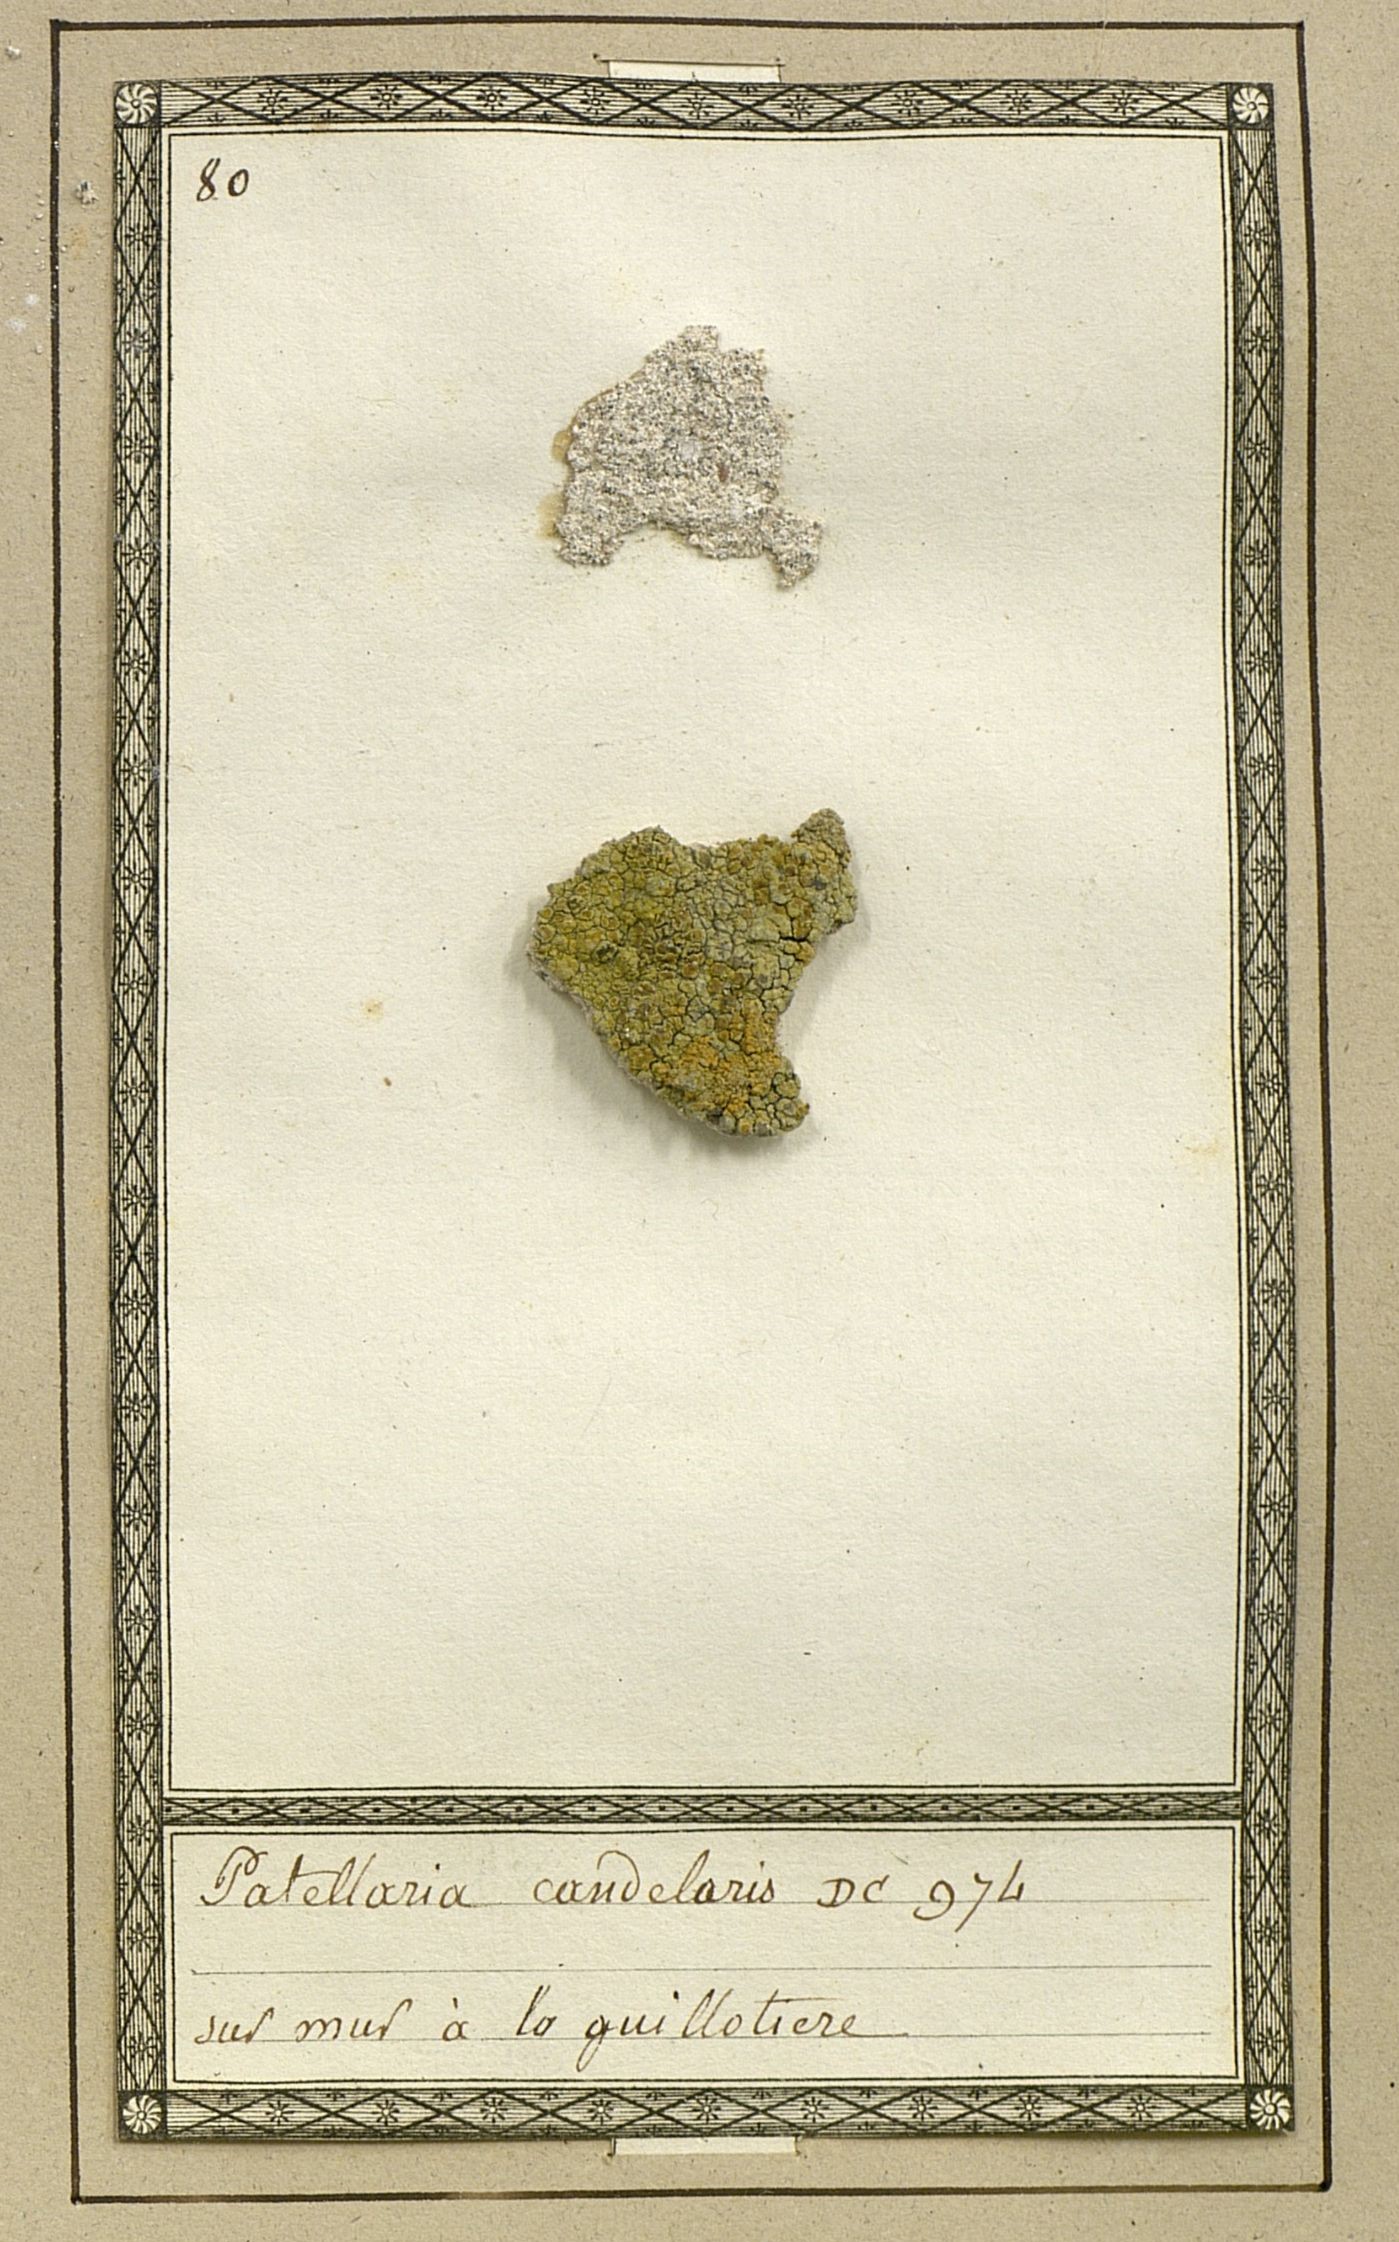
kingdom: Fungi
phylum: Ascomycota
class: Lecanoromycetes
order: Teloschistales
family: Teloschistaceae
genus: Polycauliona
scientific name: Polycauliona candelaria
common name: Shrubby sunburst lichen
